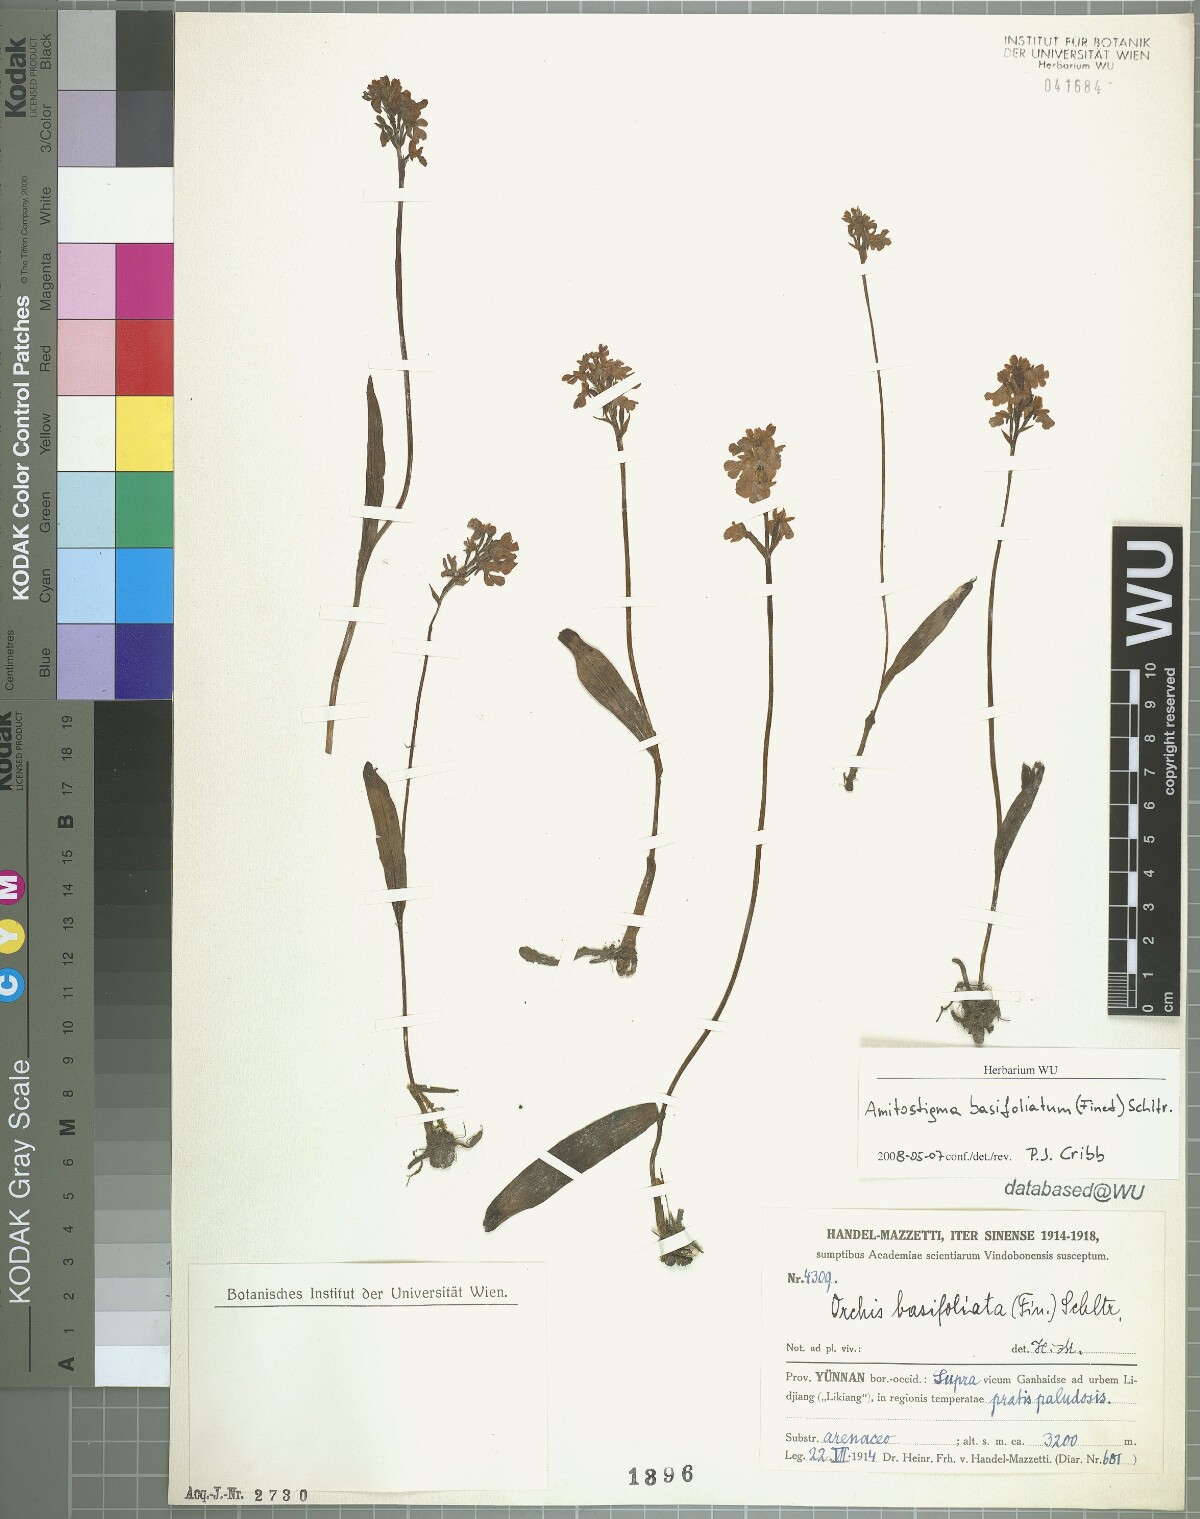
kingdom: Plantae
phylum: Tracheophyta
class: Liliopsida
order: Asparagales
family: Orchidaceae
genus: Hemipilia
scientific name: Hemipilia basifoliata
